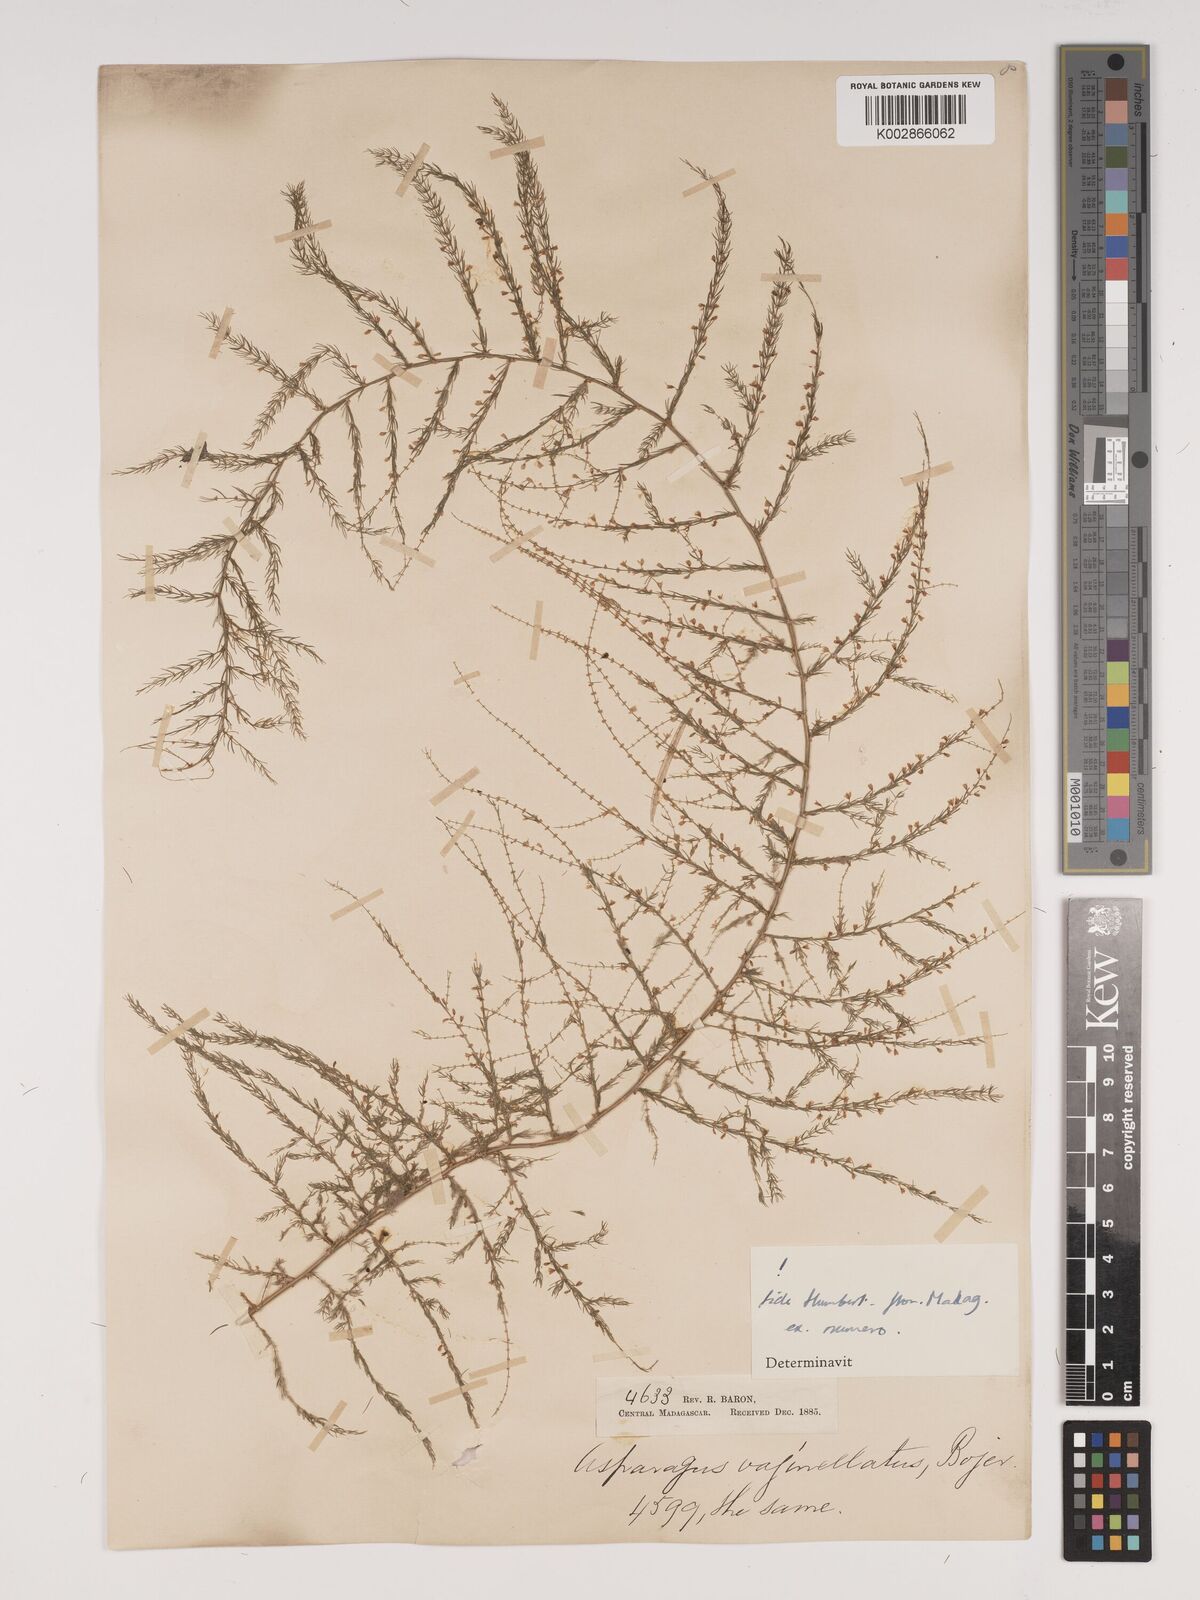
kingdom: Plantae
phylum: Tracheophyta
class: Liliopsida
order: Asparagales
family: Asparagaceae
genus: Asparagus
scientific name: Asparagus vaginellatus
